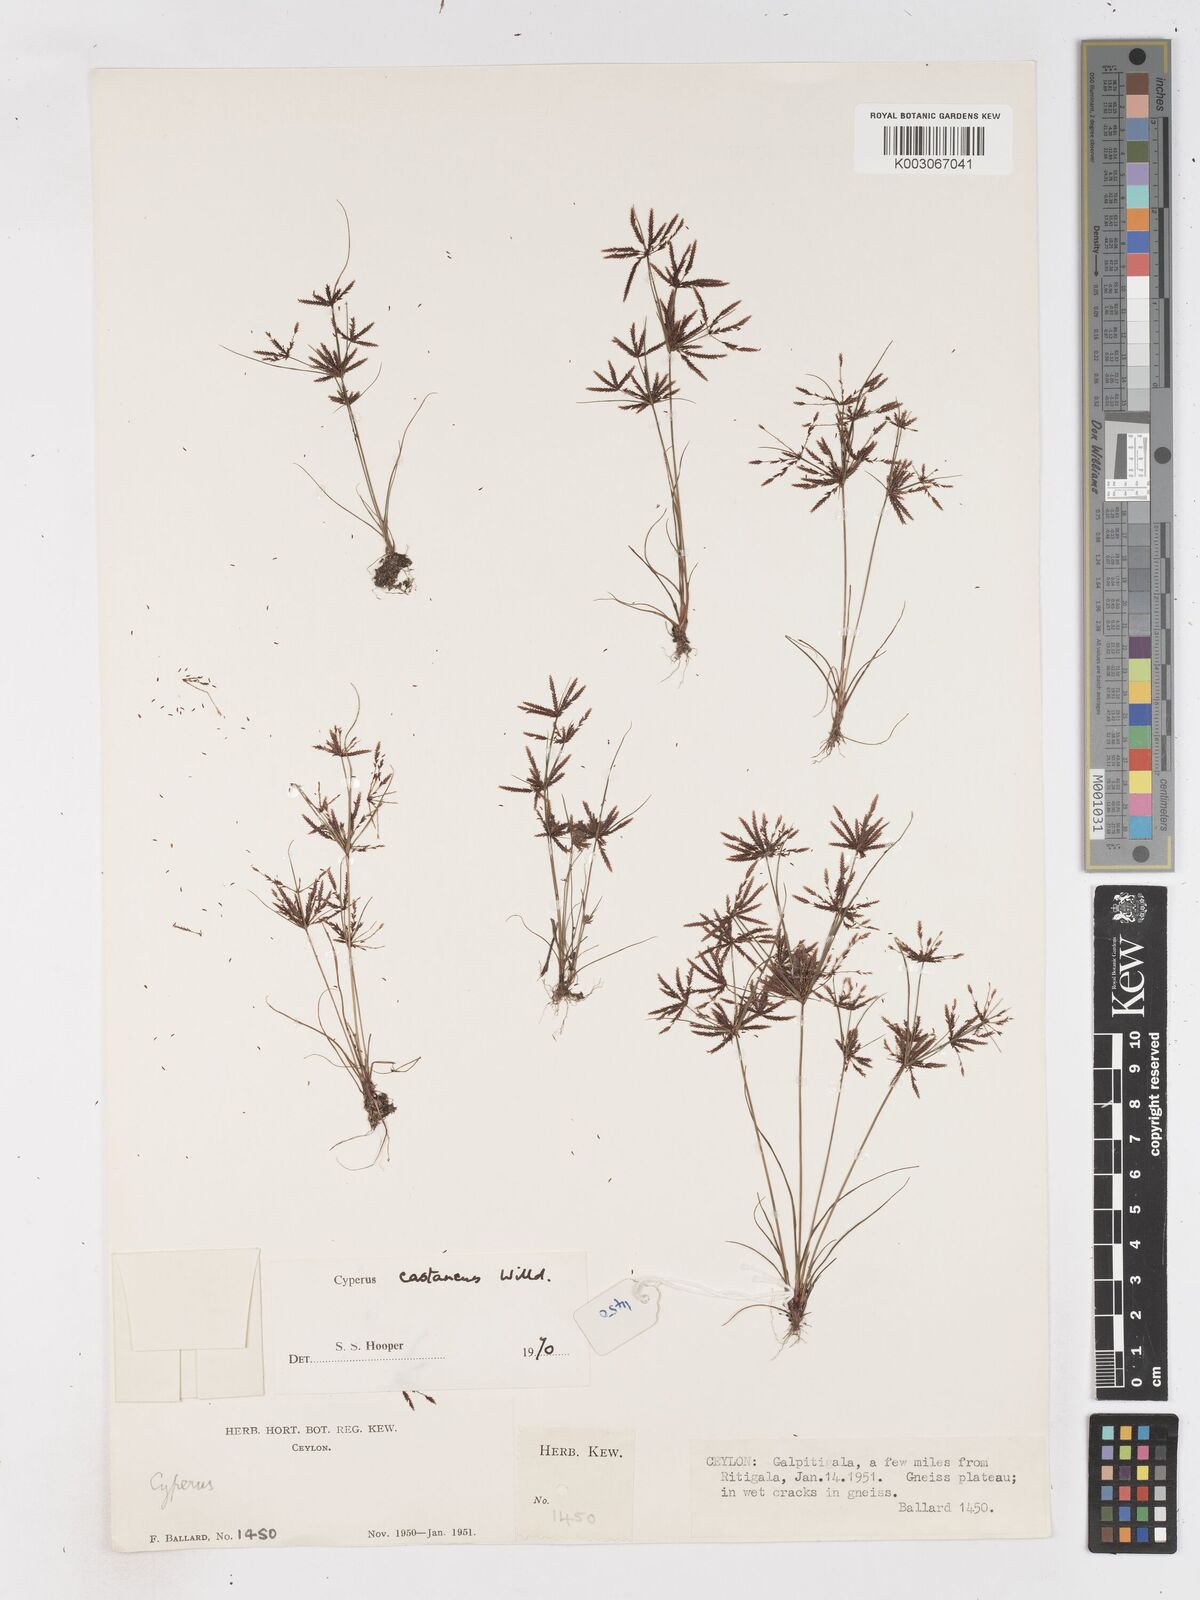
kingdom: Plantae
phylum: Tracheophyta
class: Liliopsida
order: Poales
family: Cyperaceae
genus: Cyperus
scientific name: Cyperus castaneus
